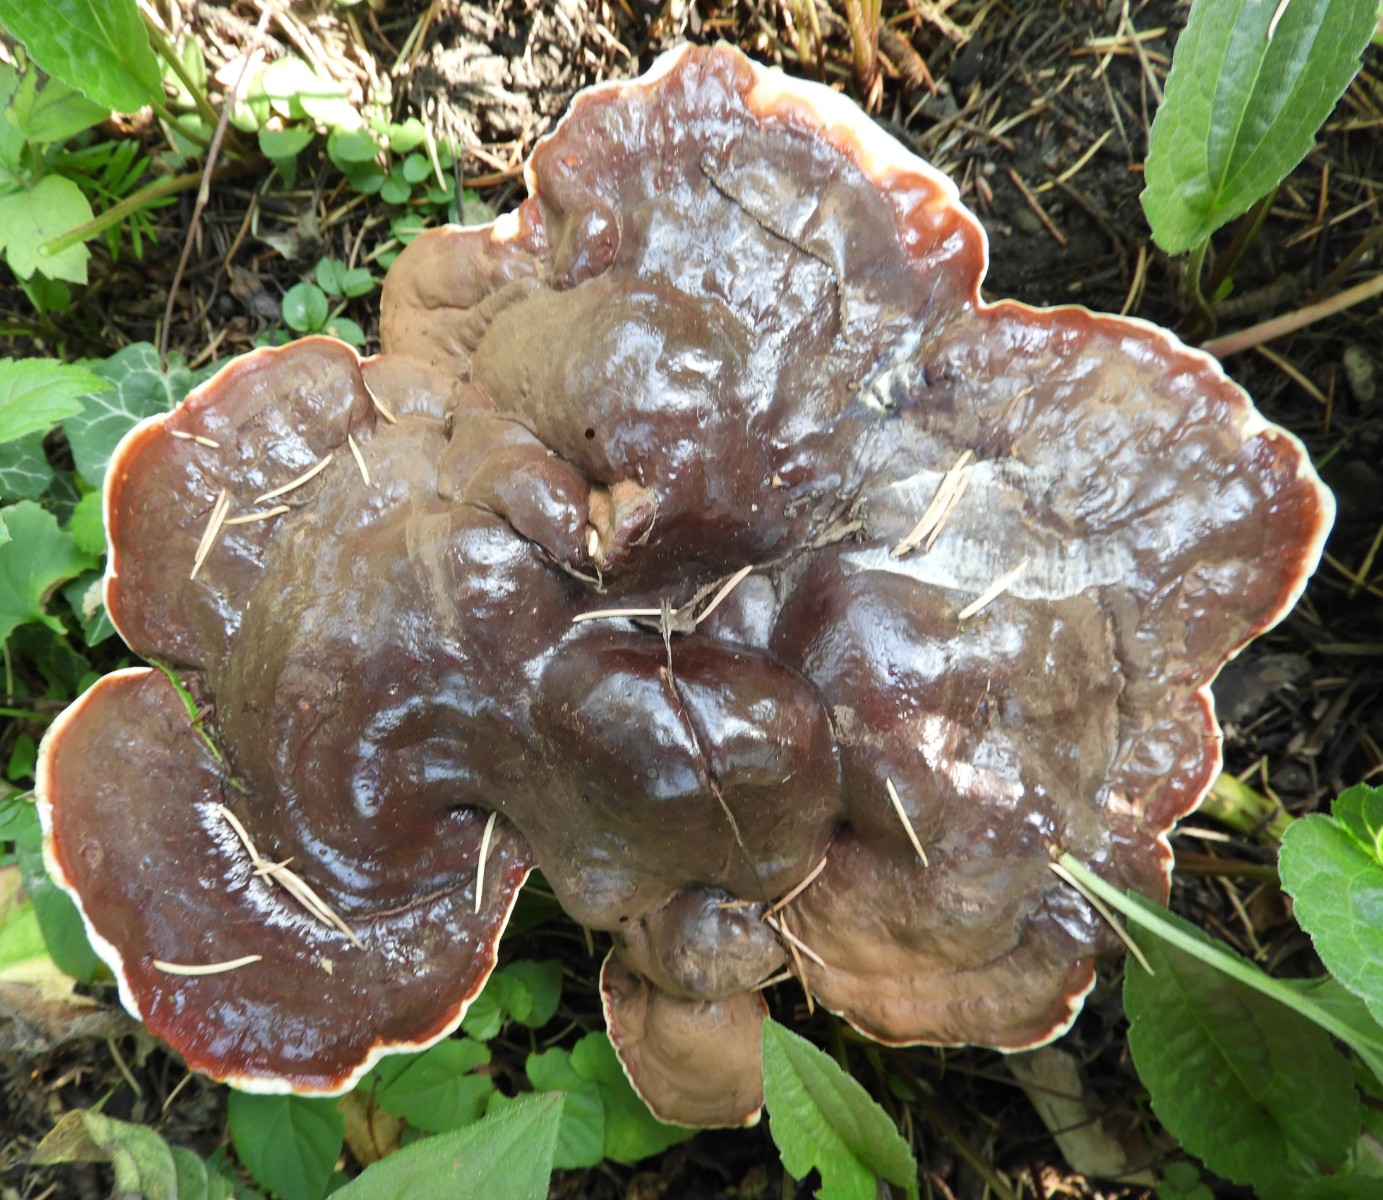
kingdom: Fungi
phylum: Basidiomycota
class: Agaricomycetes
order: Polyporales
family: Polyporaceae
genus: Ganoderma
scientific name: Ganoderma lucidum
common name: skinnende lakporesvamp
